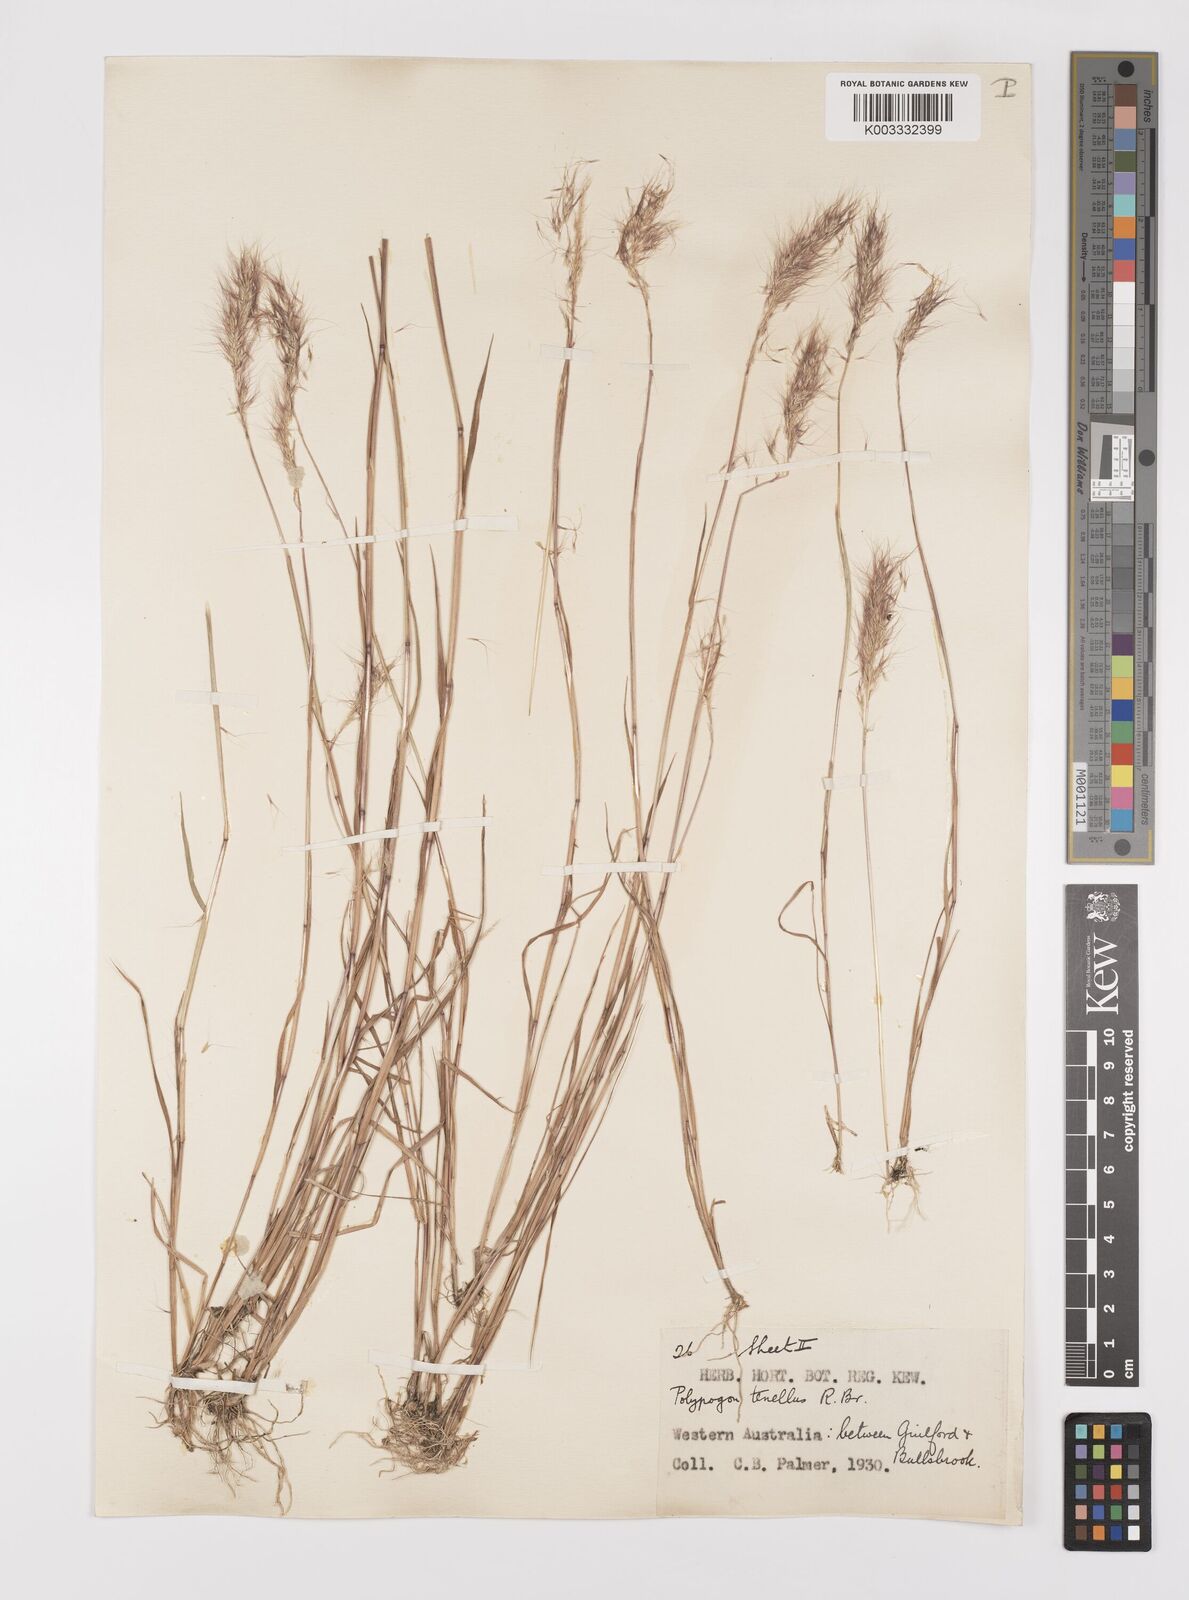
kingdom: Plantae
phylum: Tracheophyta
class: Liliopsida
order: Poales
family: Poaceae
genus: Polypogon
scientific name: Polypogon tenellus
